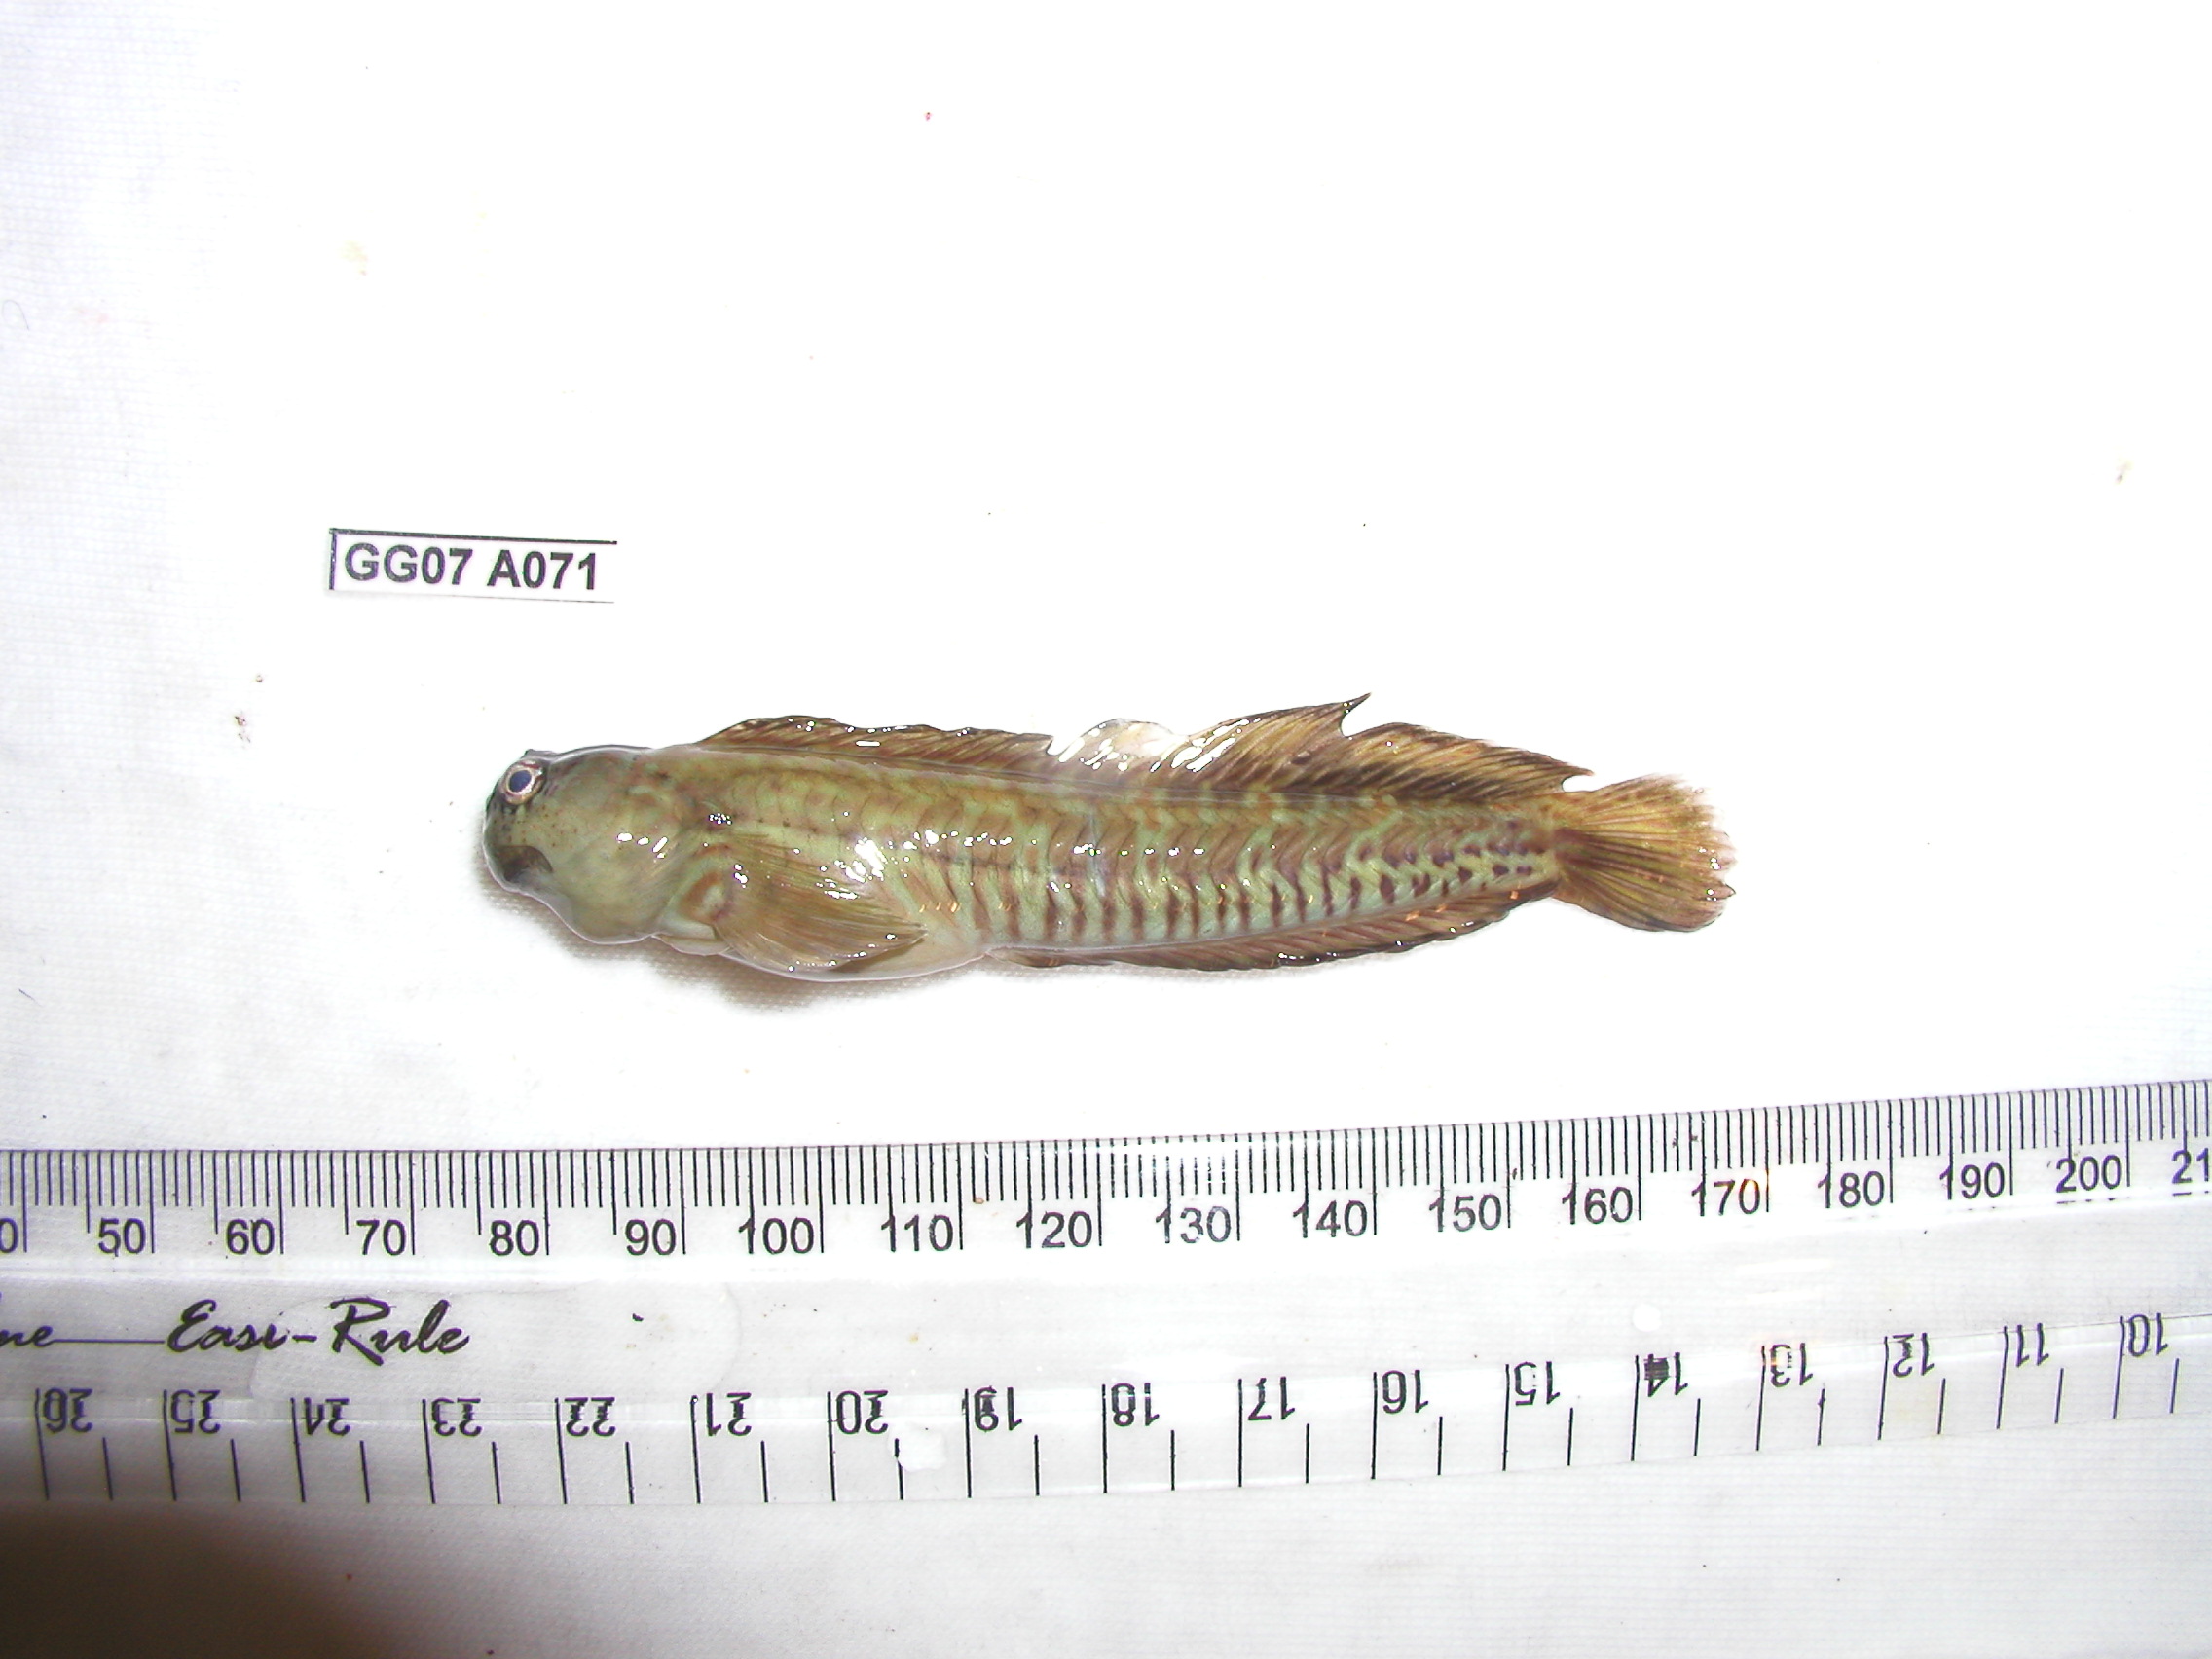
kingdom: Animalia
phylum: Chordata
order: Perciformes
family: Blenniidae
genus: Istiblennius
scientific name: Istiblennius dussumieri
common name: Dussumier's rockskipper
